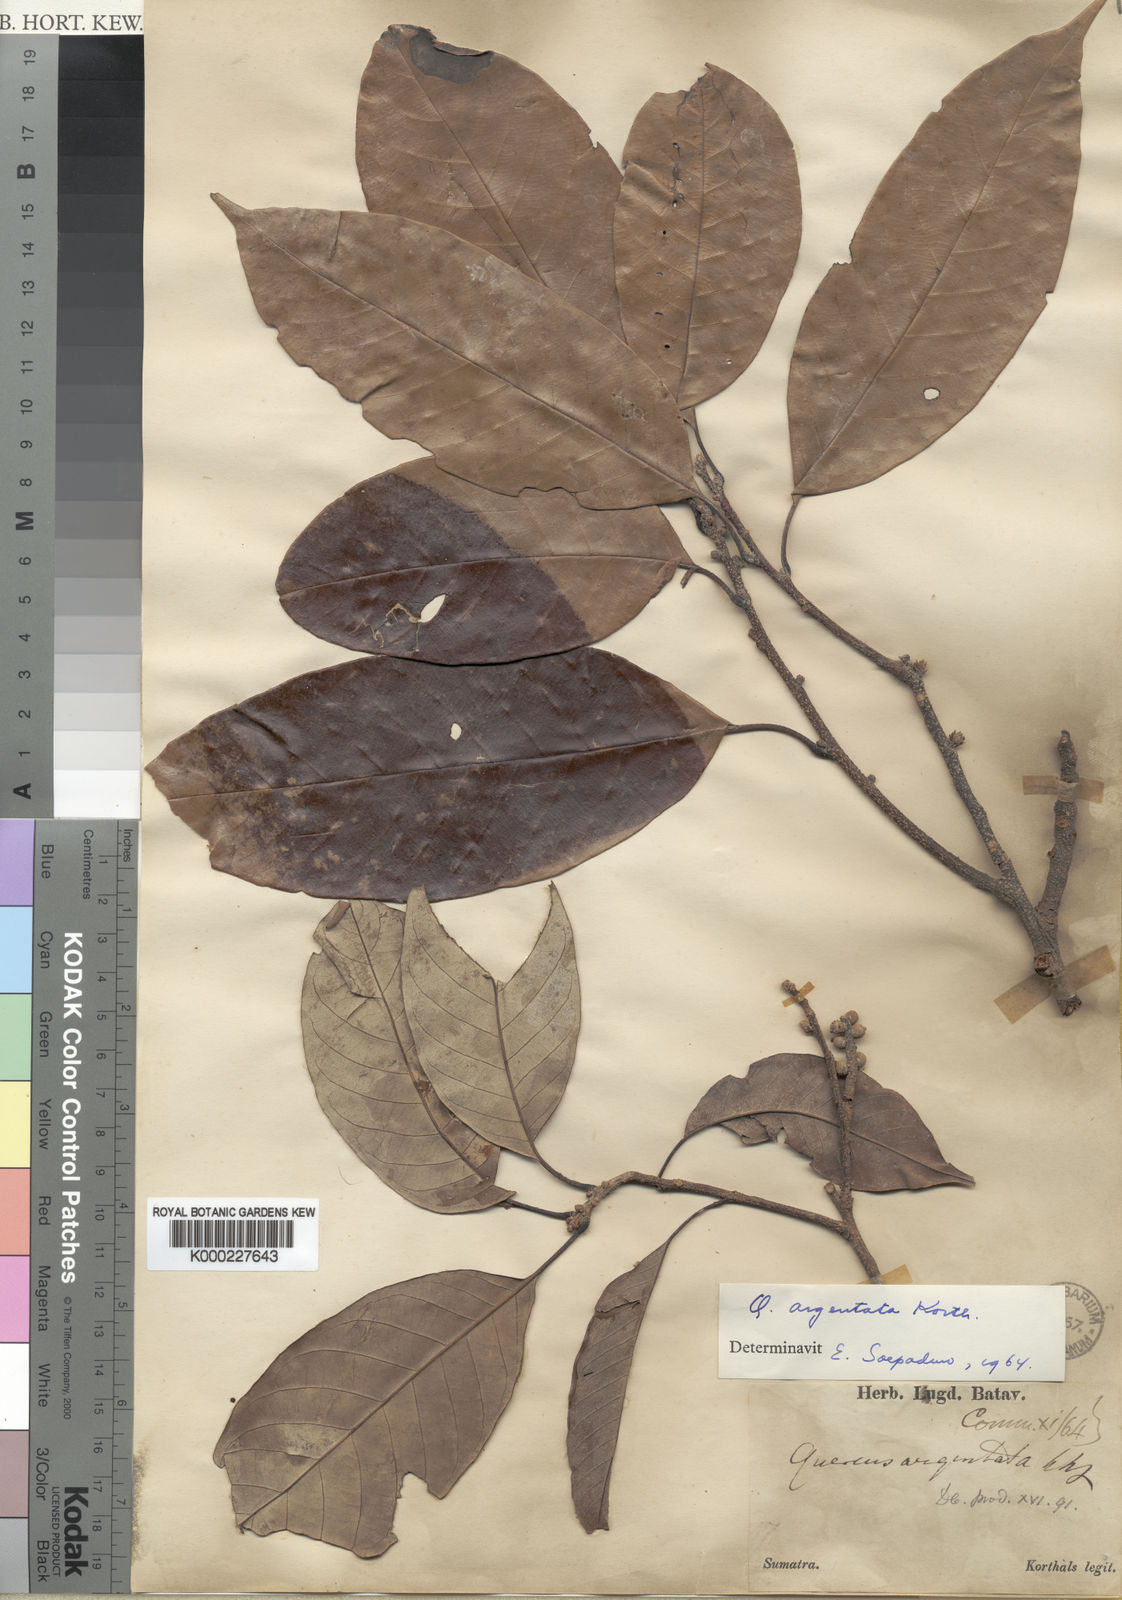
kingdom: Plantae
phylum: Tracheophyta
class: Magnoliopsida
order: Fagales
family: Fagaceae
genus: Quercus
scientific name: Quercus argentata
